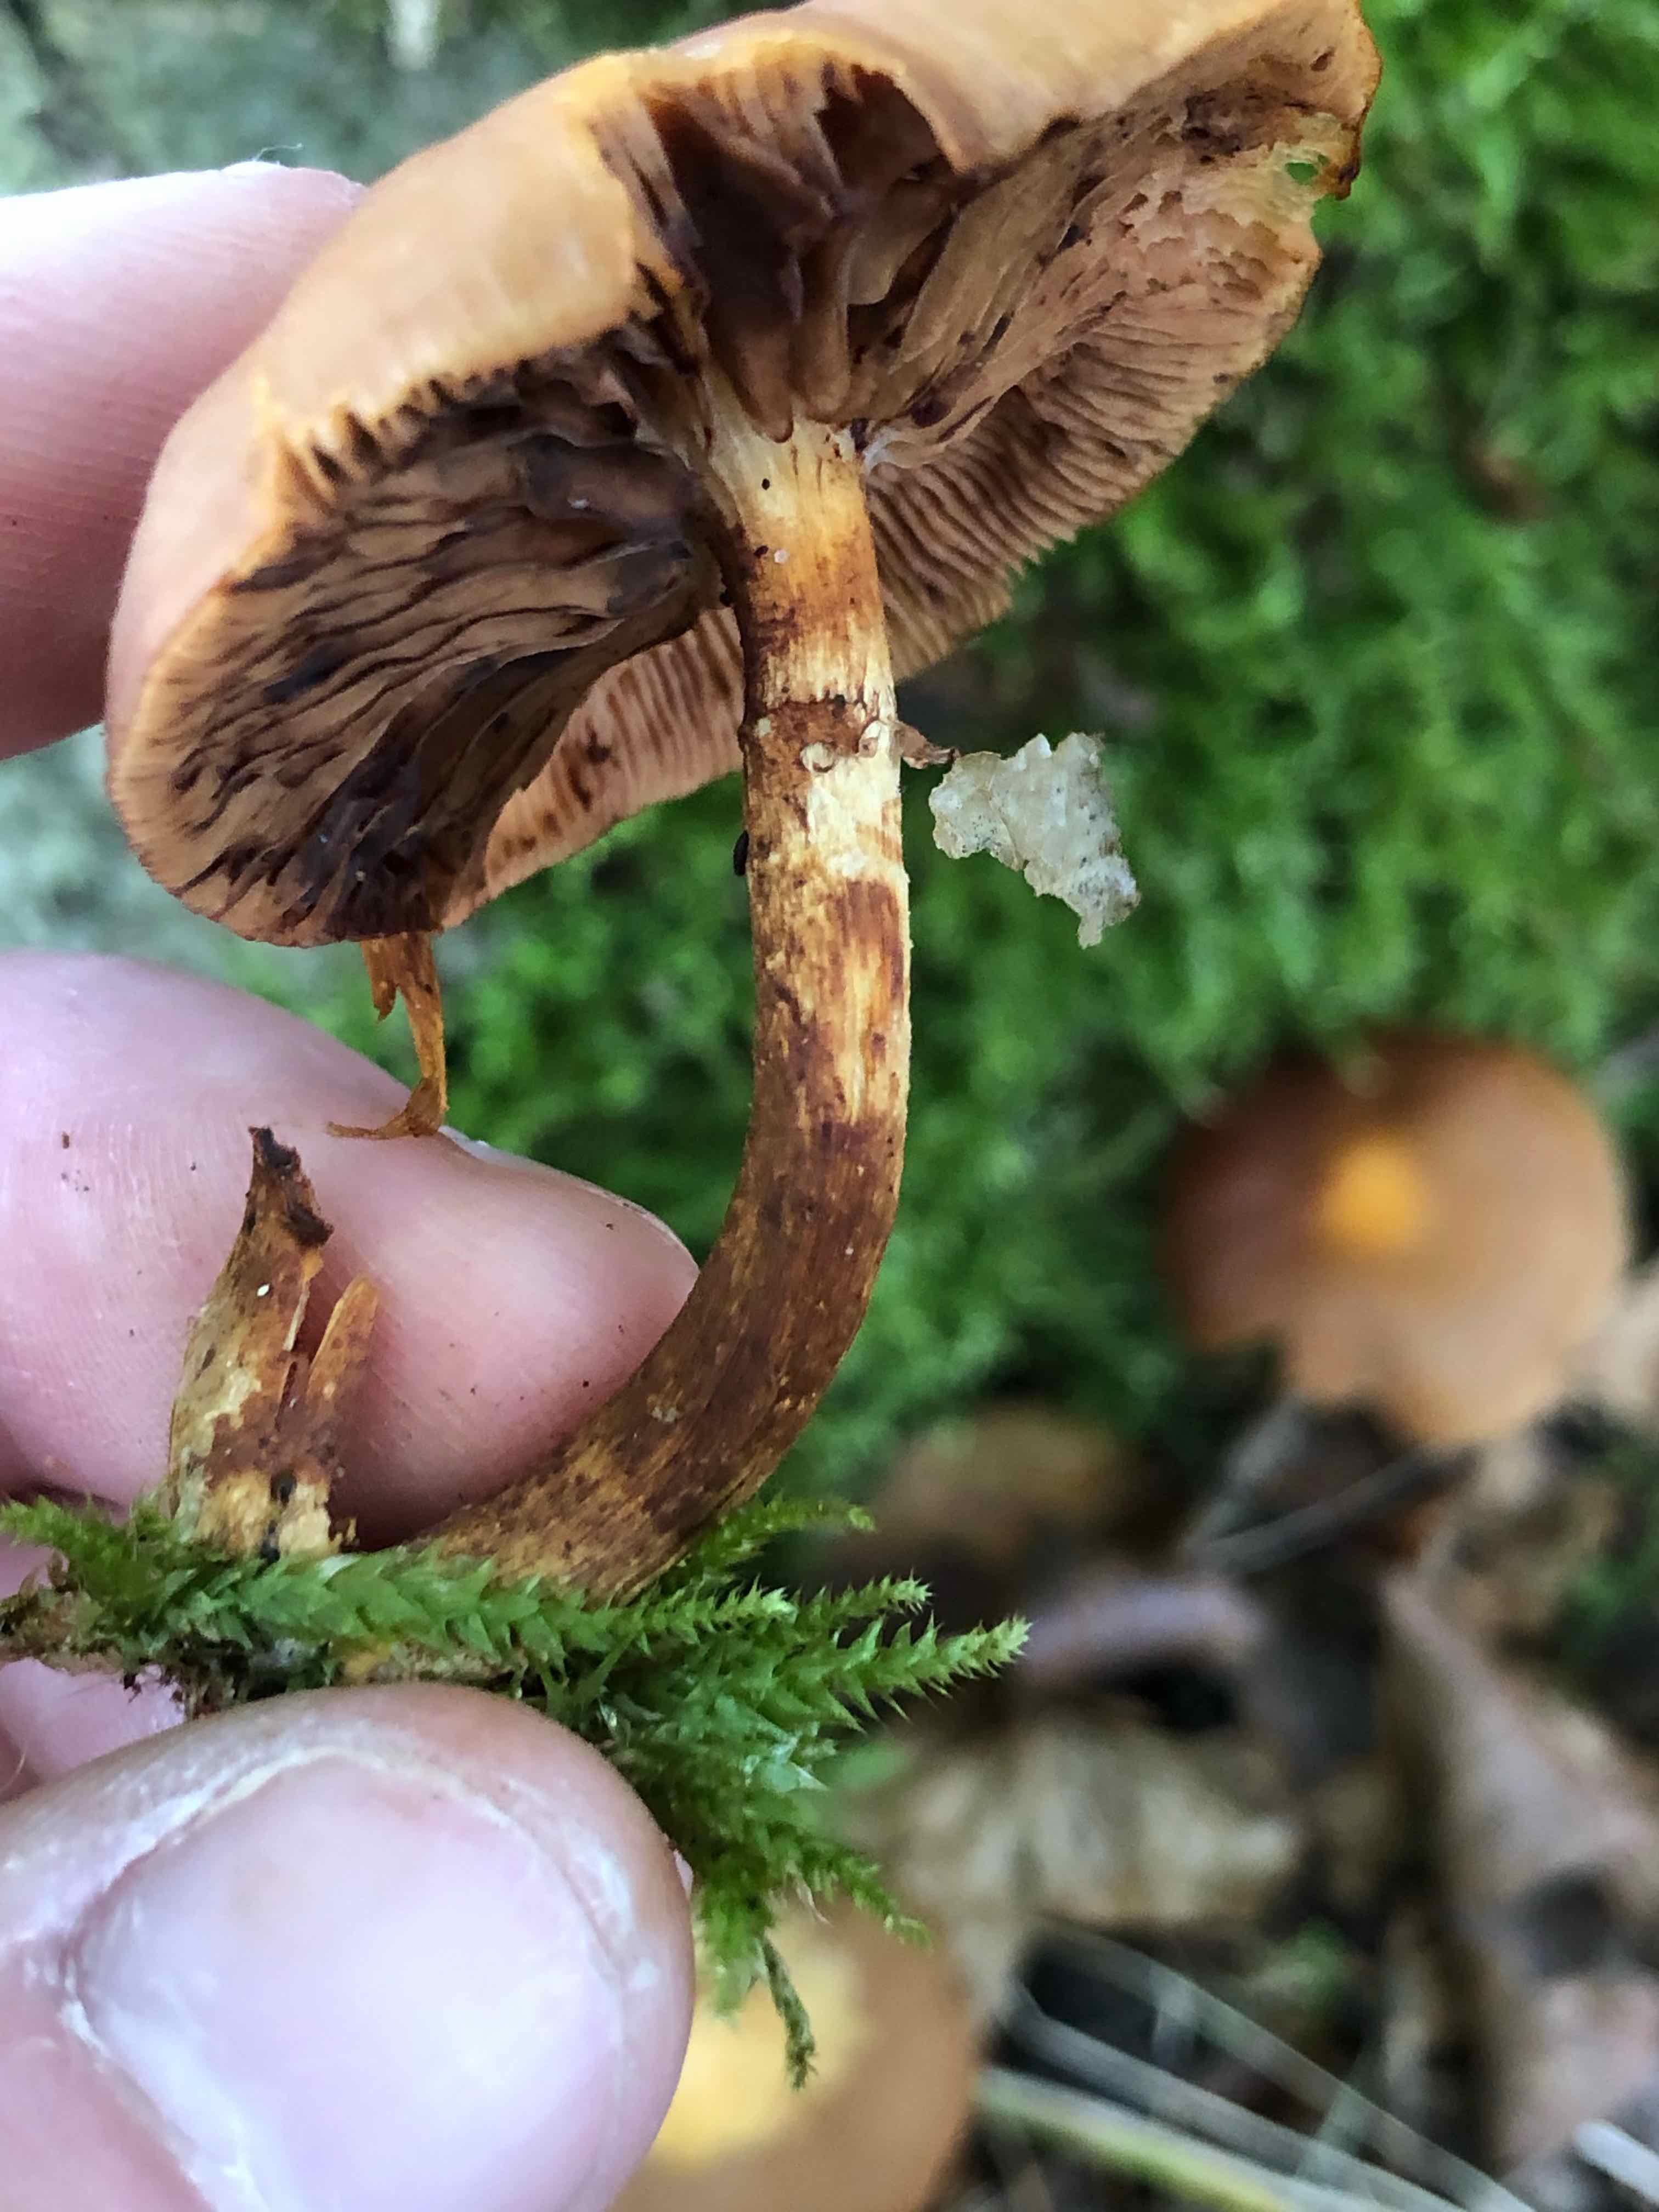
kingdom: Fungi
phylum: Basidiomycota
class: Agaricomycetes
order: Agaricales
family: Strophariaceae
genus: Kuehneromyces
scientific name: Kuehneromyces mutabilis
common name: foranderlig skælhat
